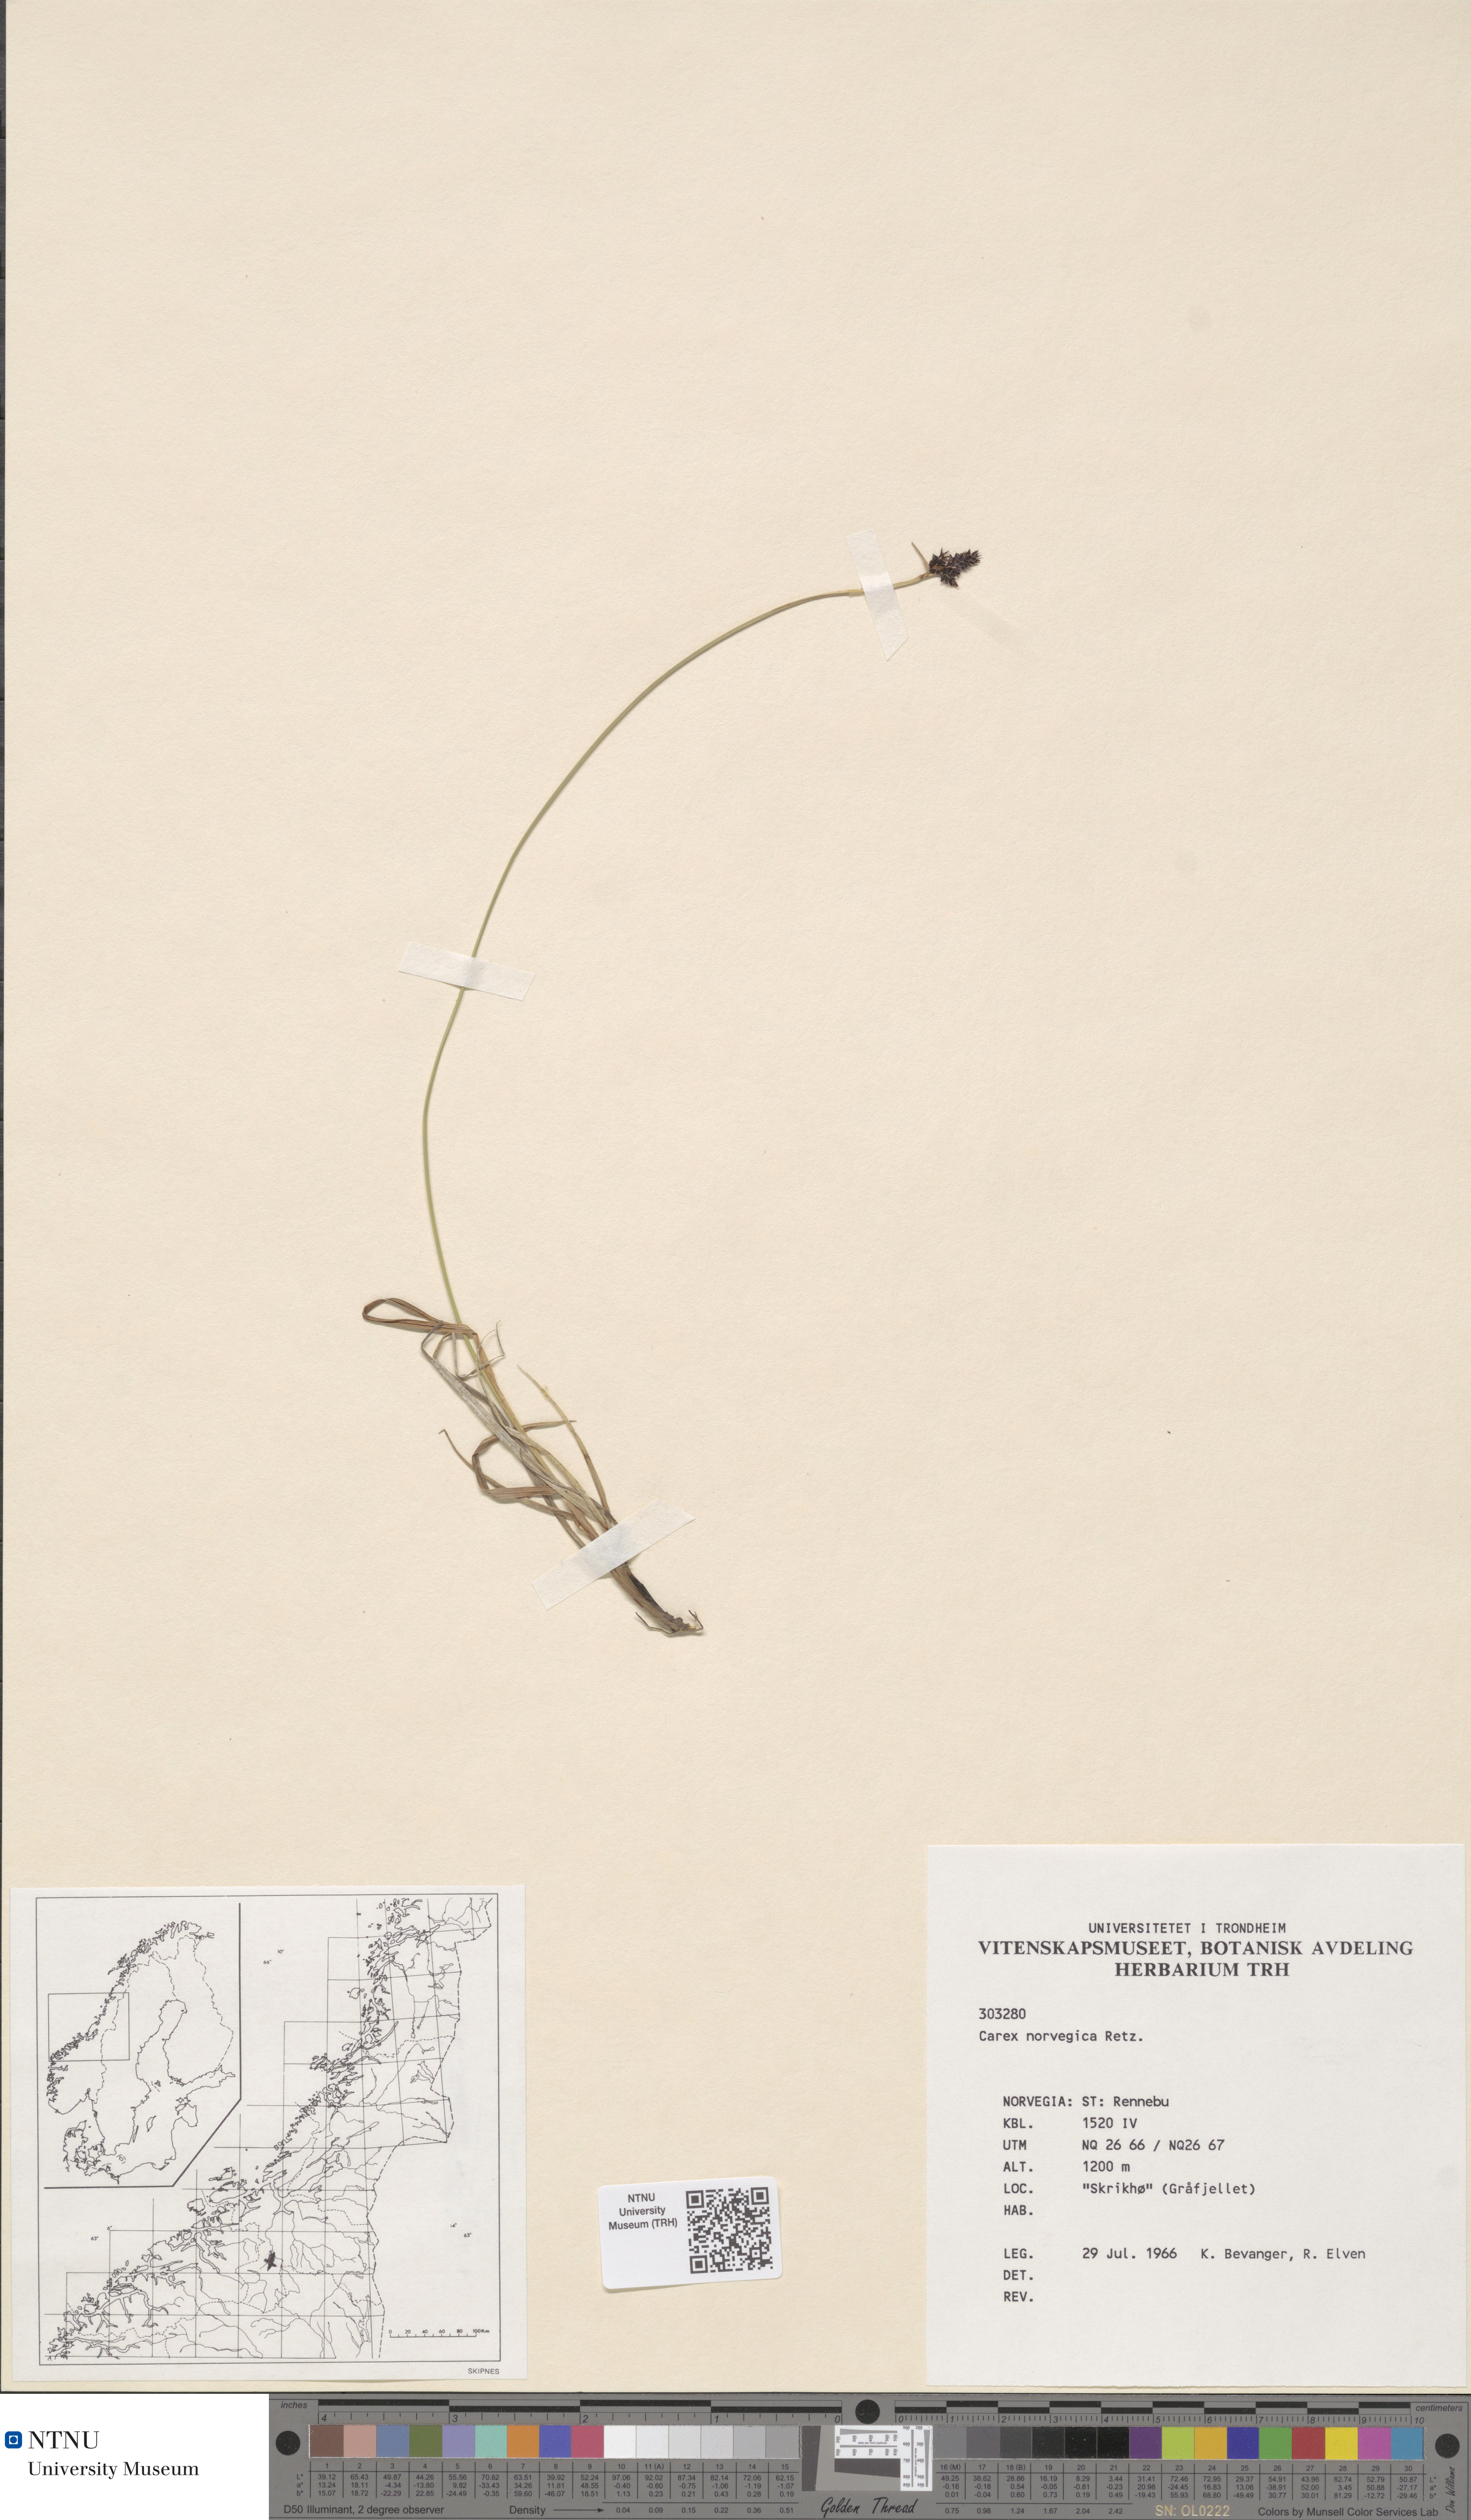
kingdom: Plantae
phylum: Tracheophyta
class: Liliopsida
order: Poales
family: Cyperaceae
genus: Carex
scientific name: Carex norvegica
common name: Close-headed alpine-sedge
